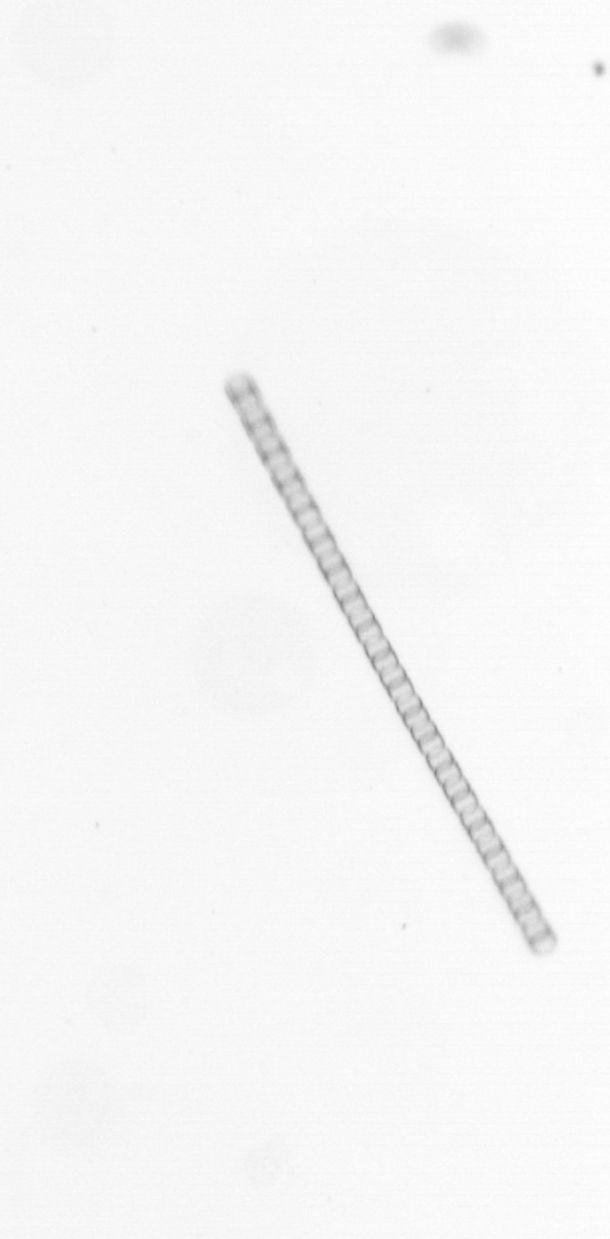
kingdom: Chromista
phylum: Ochrophyta
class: Bacillariophyceae
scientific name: Bacillariophyceae
